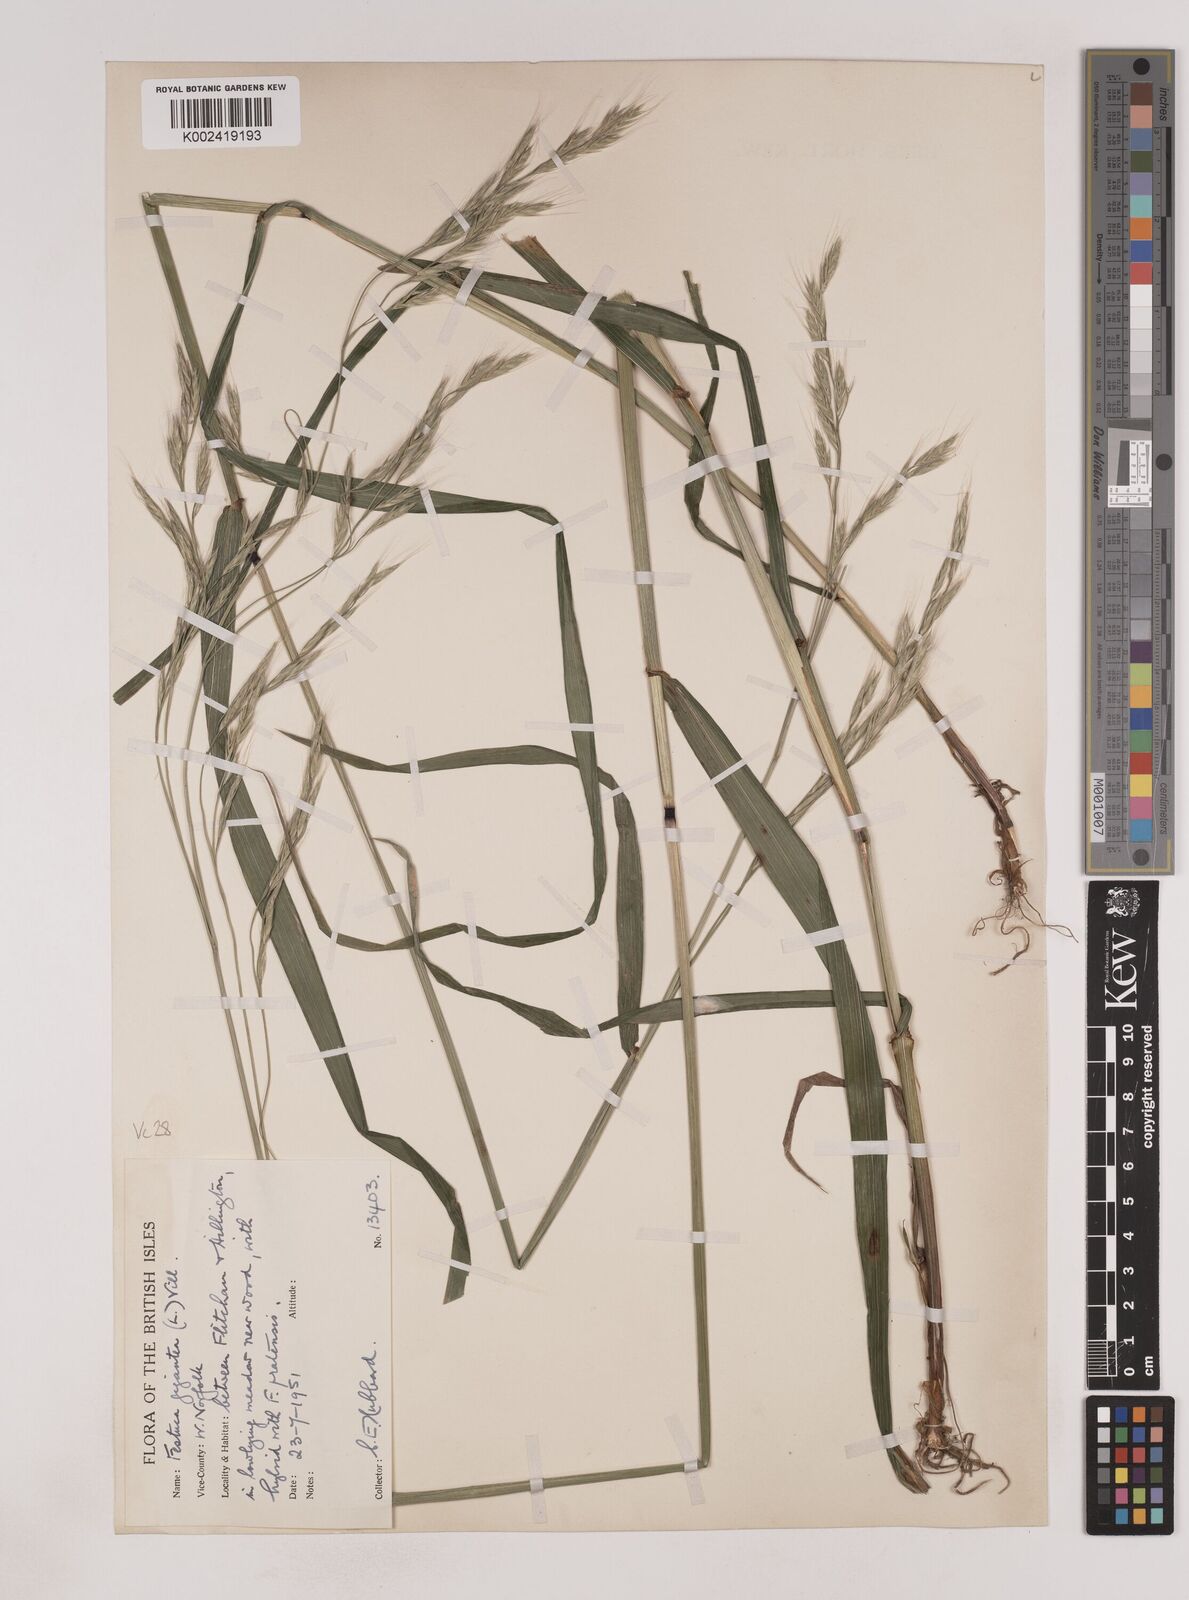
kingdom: Plantae
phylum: Tracheophyta
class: Liliopsida
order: Poales
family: Poaceae
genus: Lolium
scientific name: Lolium giganteum
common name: Giant fescue
